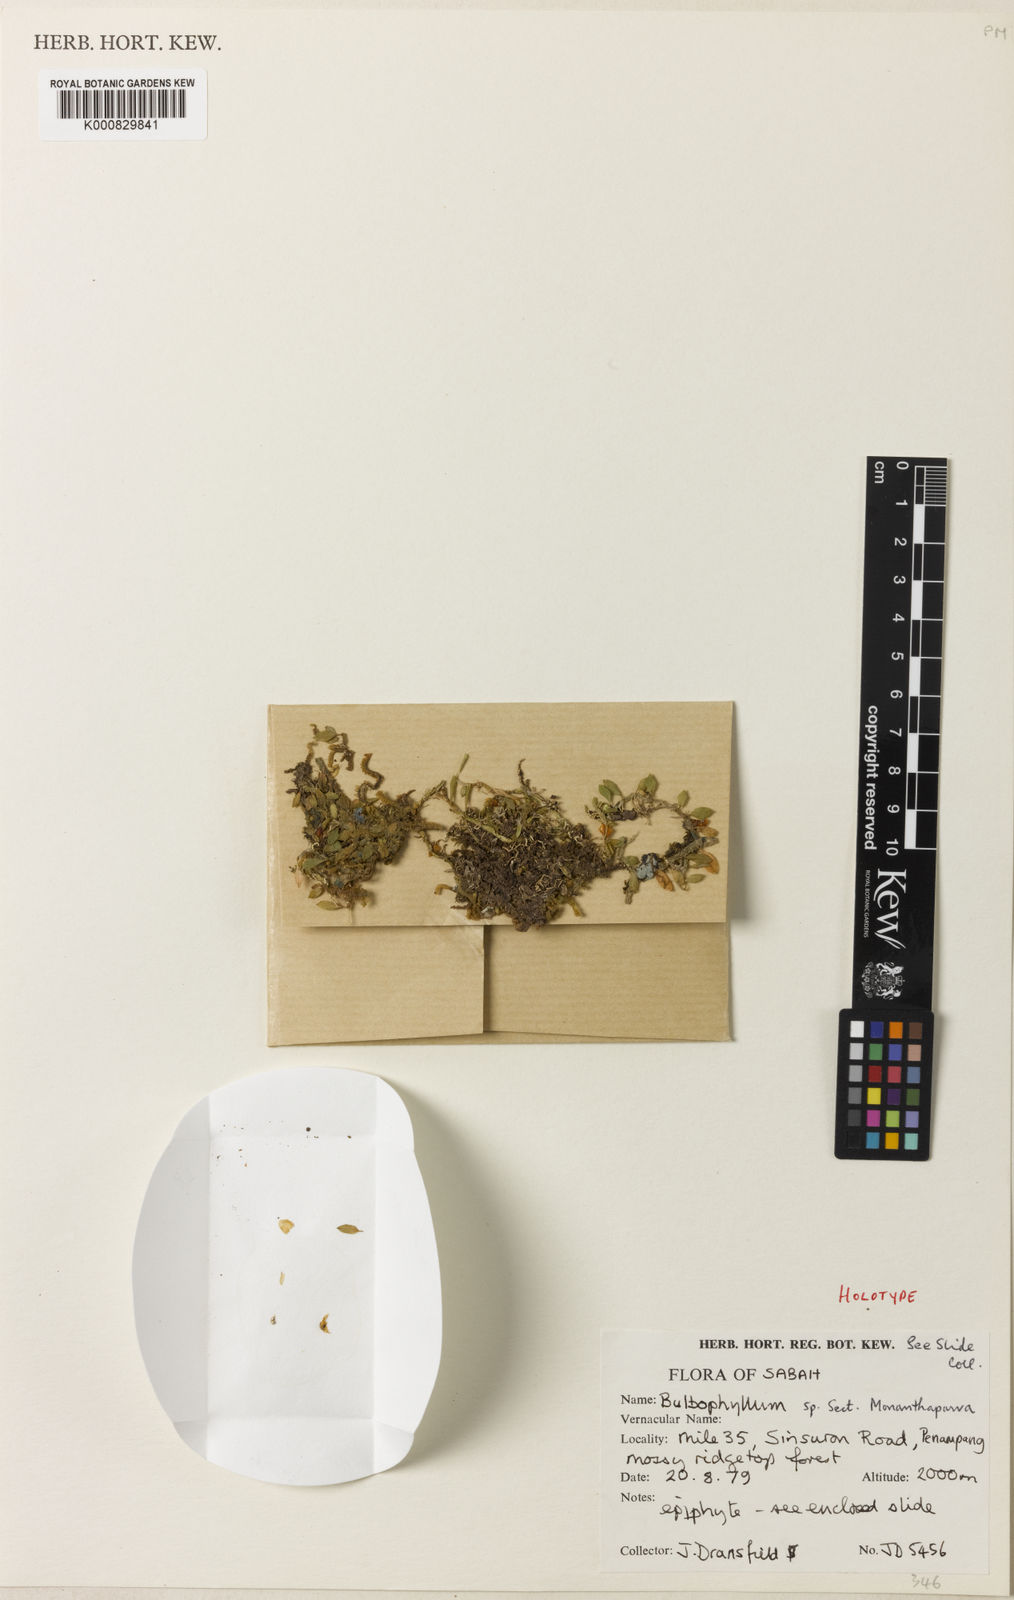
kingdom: Plantae
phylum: Tracheophyta
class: Liliopsida
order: Asparagales
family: Orchidaceae
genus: Bulbophyllum
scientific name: Bulbophyllum dransfieldii
